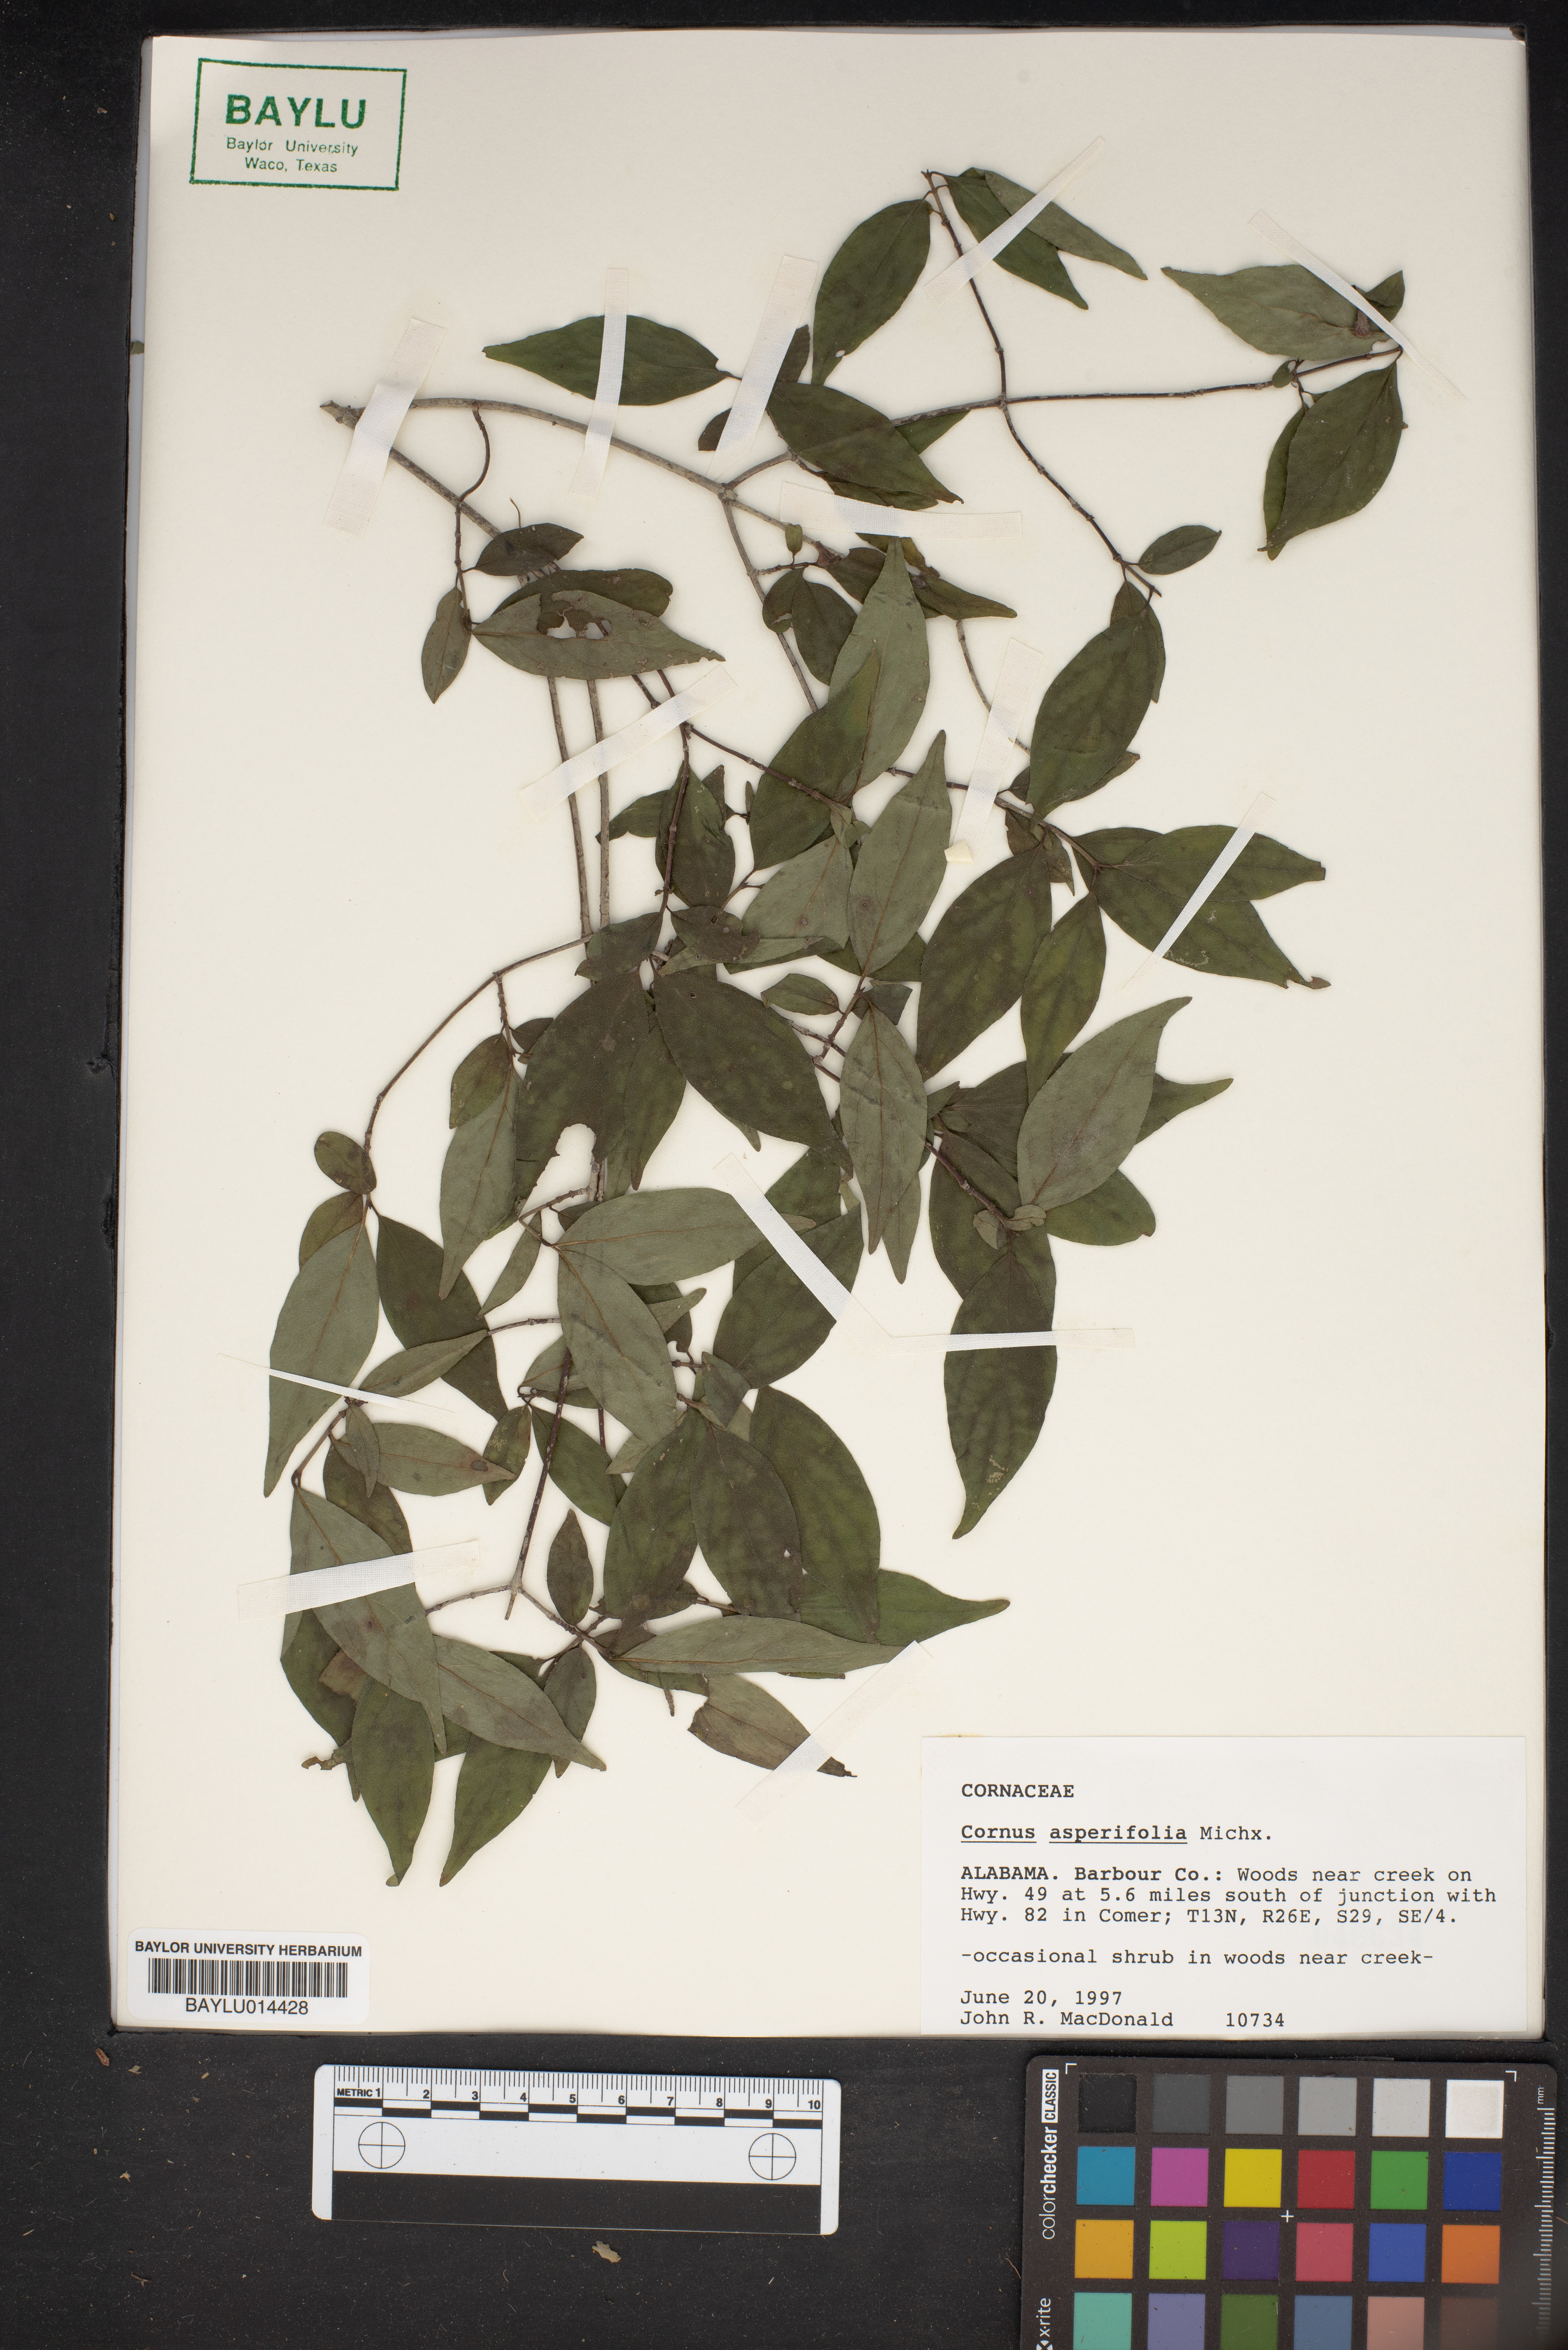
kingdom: Plantae
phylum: Tracheophyta
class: Magnoliopsida
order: Cornales
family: Cornaceae
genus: Cornus
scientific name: Cornus asperifolia
